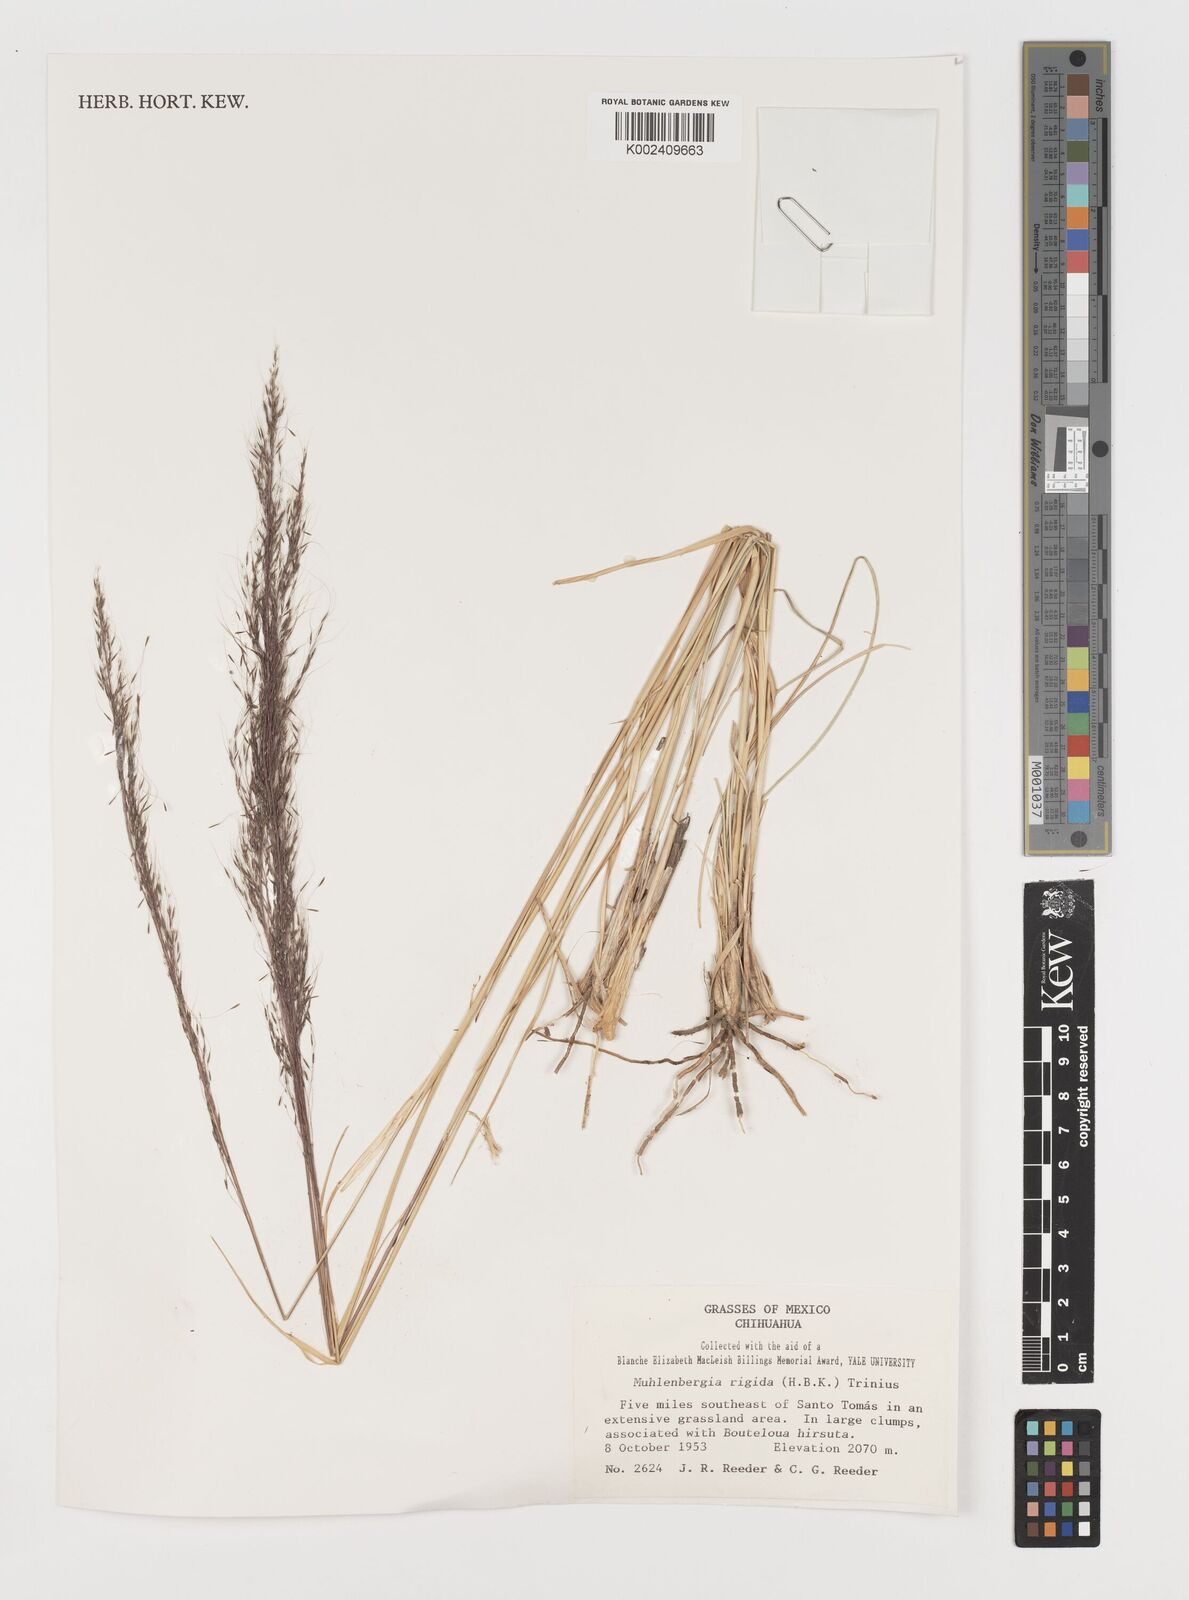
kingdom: Plantae
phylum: Tracheophyta
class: Liliopsida
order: Poales
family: Poaceae
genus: Muhlenbergia
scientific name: Muhlenbergia rigida
